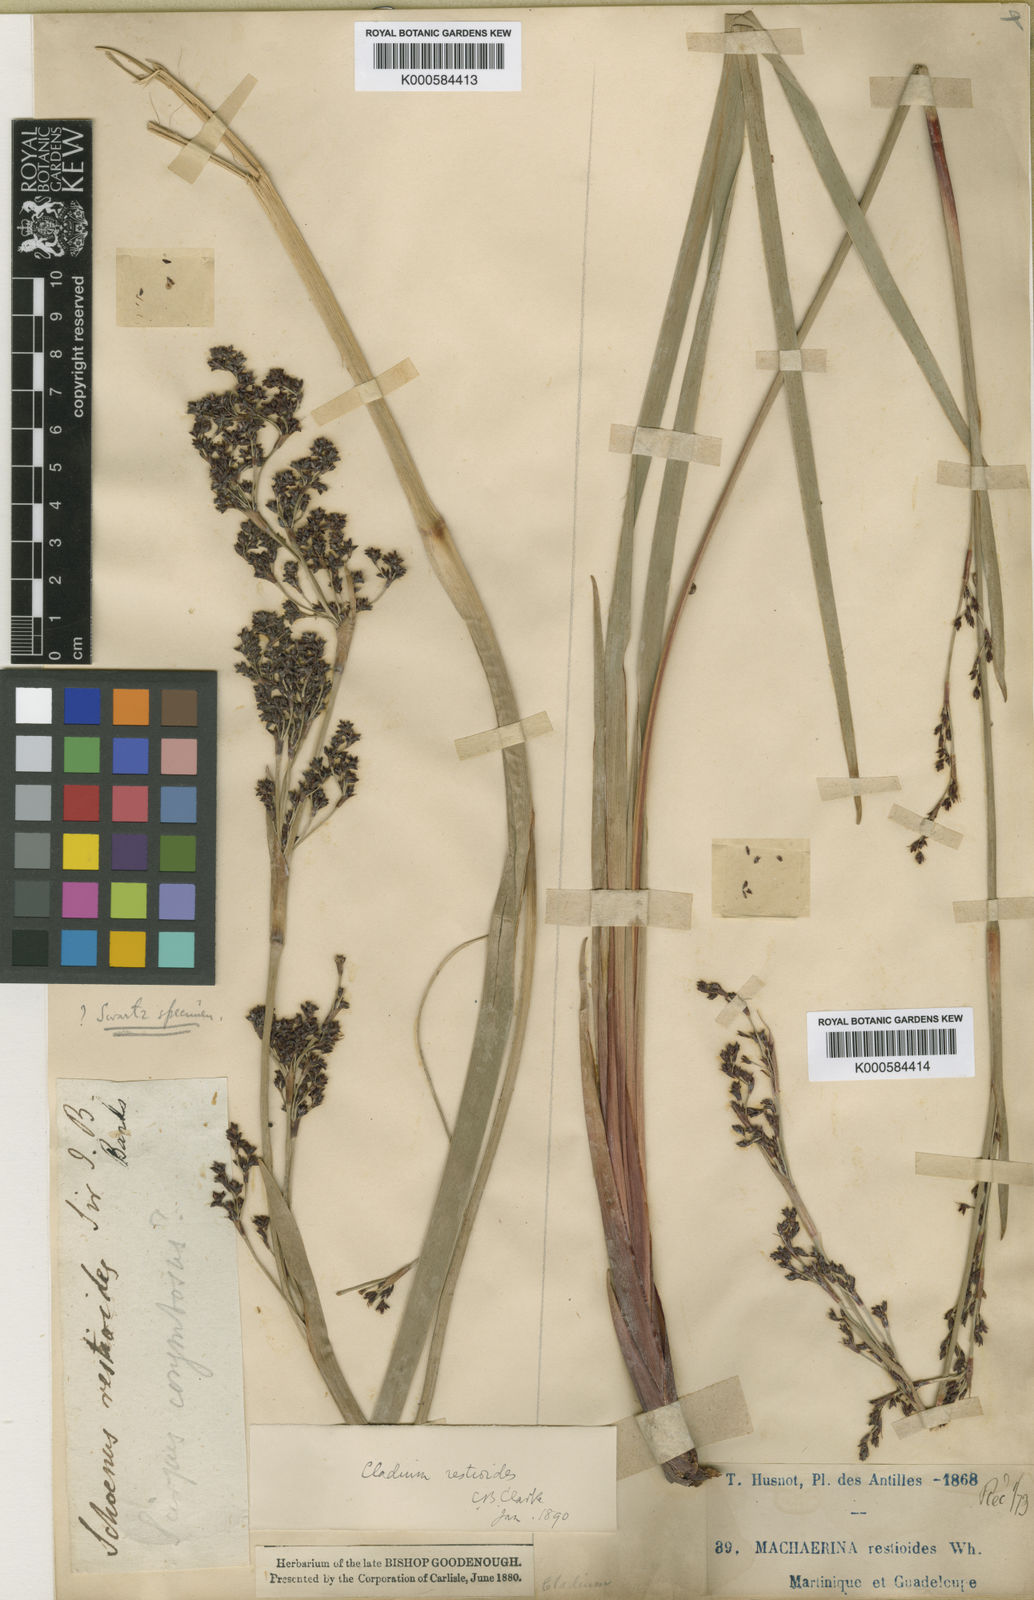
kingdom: Plantae
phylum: Tracheophyta
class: Liliopsida
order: Poales
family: Cyperaceae
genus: Machaerina
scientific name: Machaerina restioides
